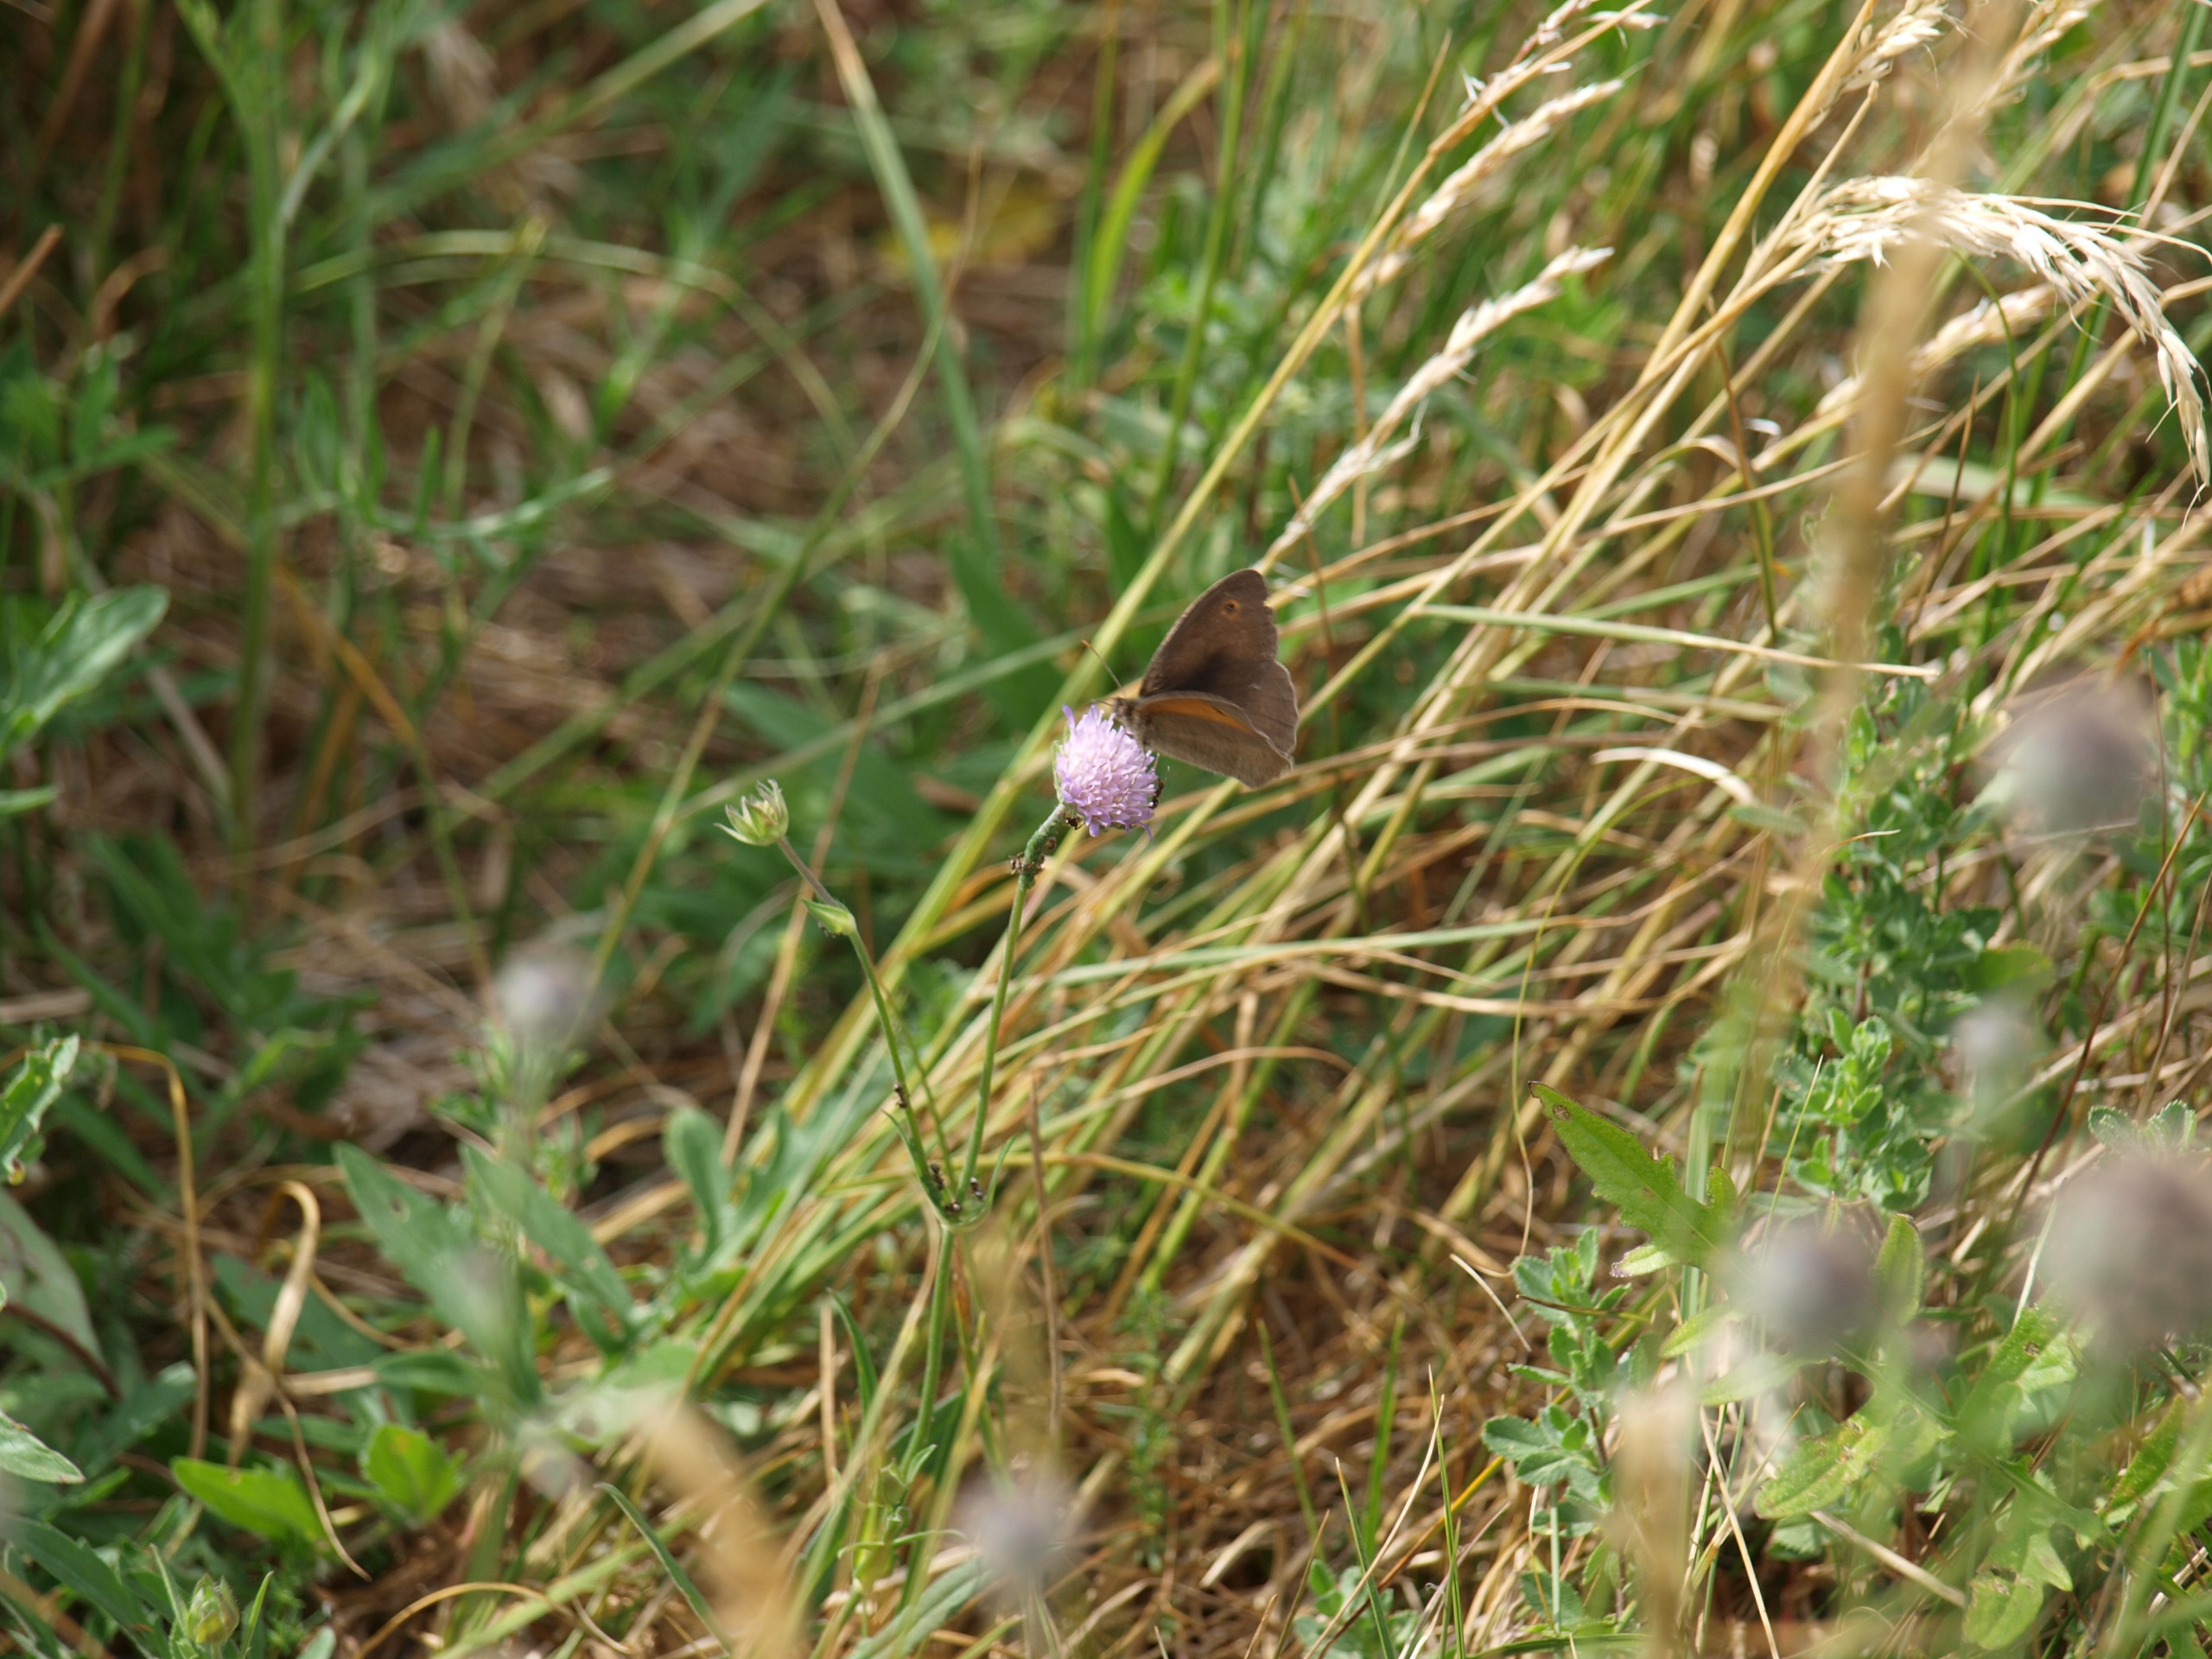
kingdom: Animalia
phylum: Arthropoda
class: Insecta
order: Lepidoptera
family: Nymphalidae
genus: Maniola
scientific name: Maniola jurtina
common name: Græsrandøje
